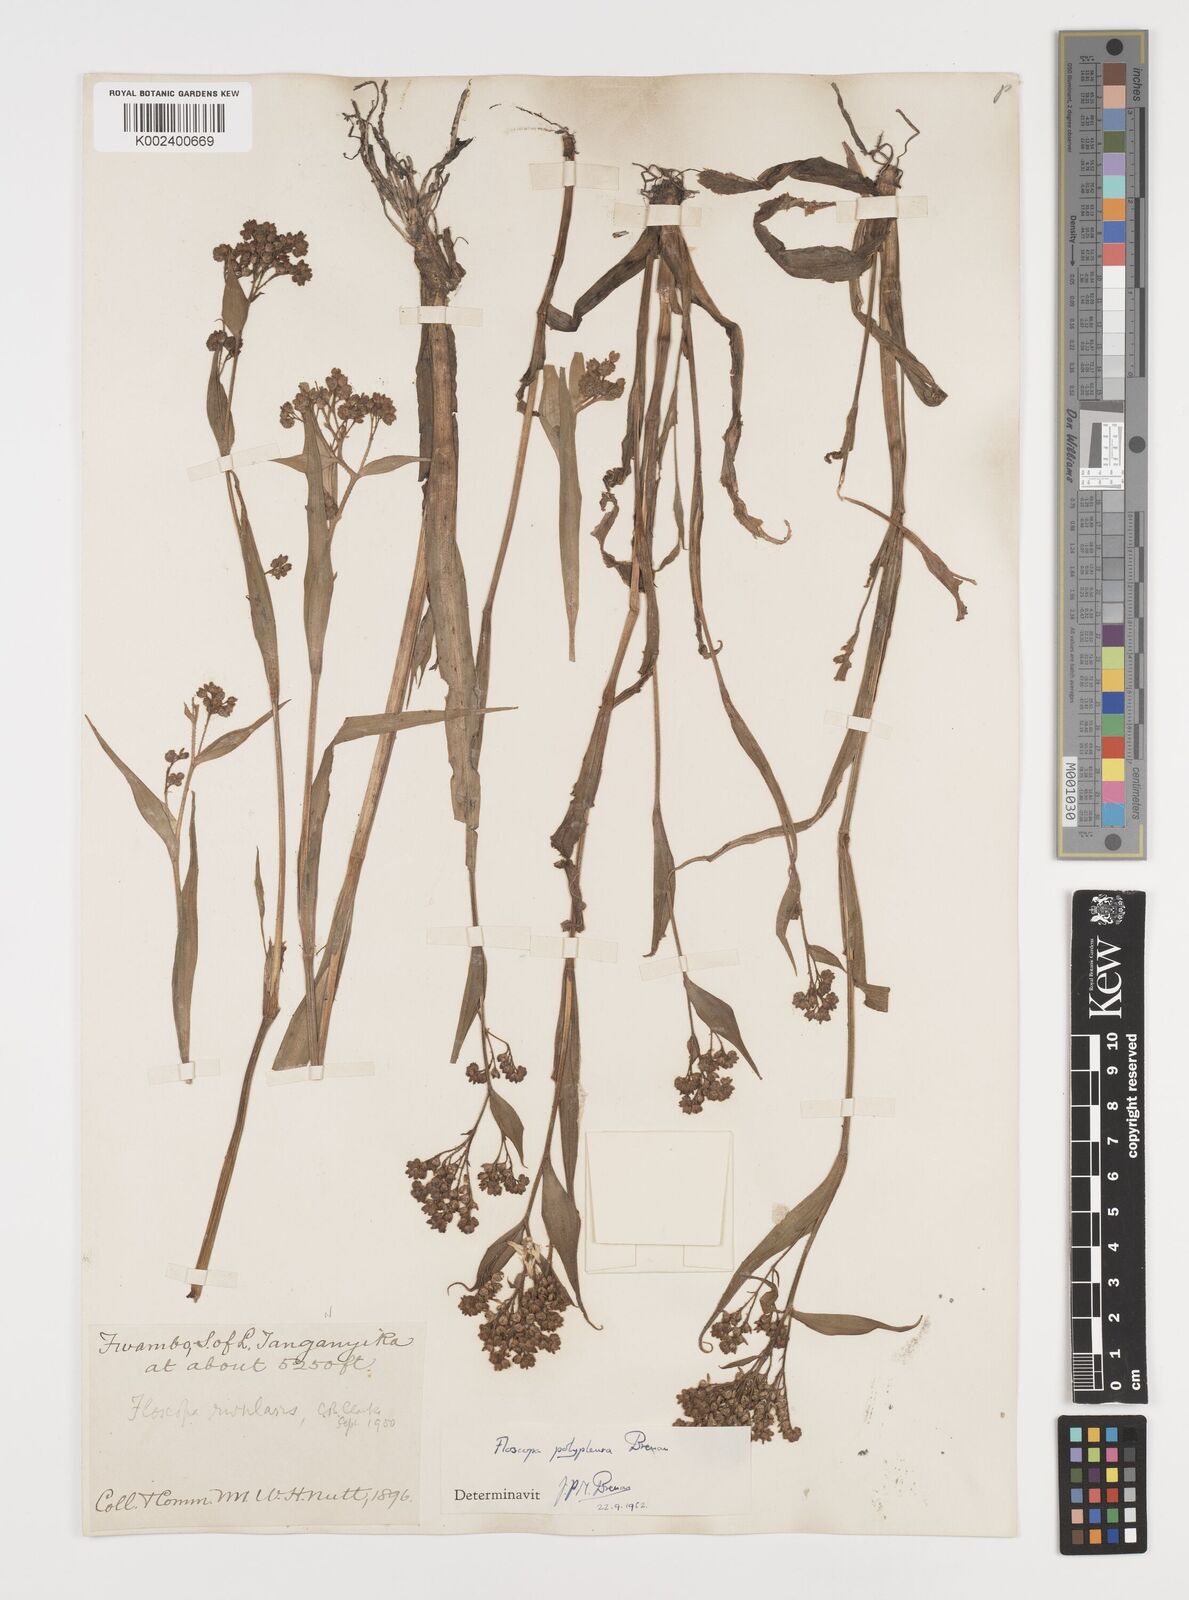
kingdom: Plantae
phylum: Tracheophyta
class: Liliopsida
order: Commelinales
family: Commelinaceae
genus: Floscopa
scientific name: Floscopa polypleura
